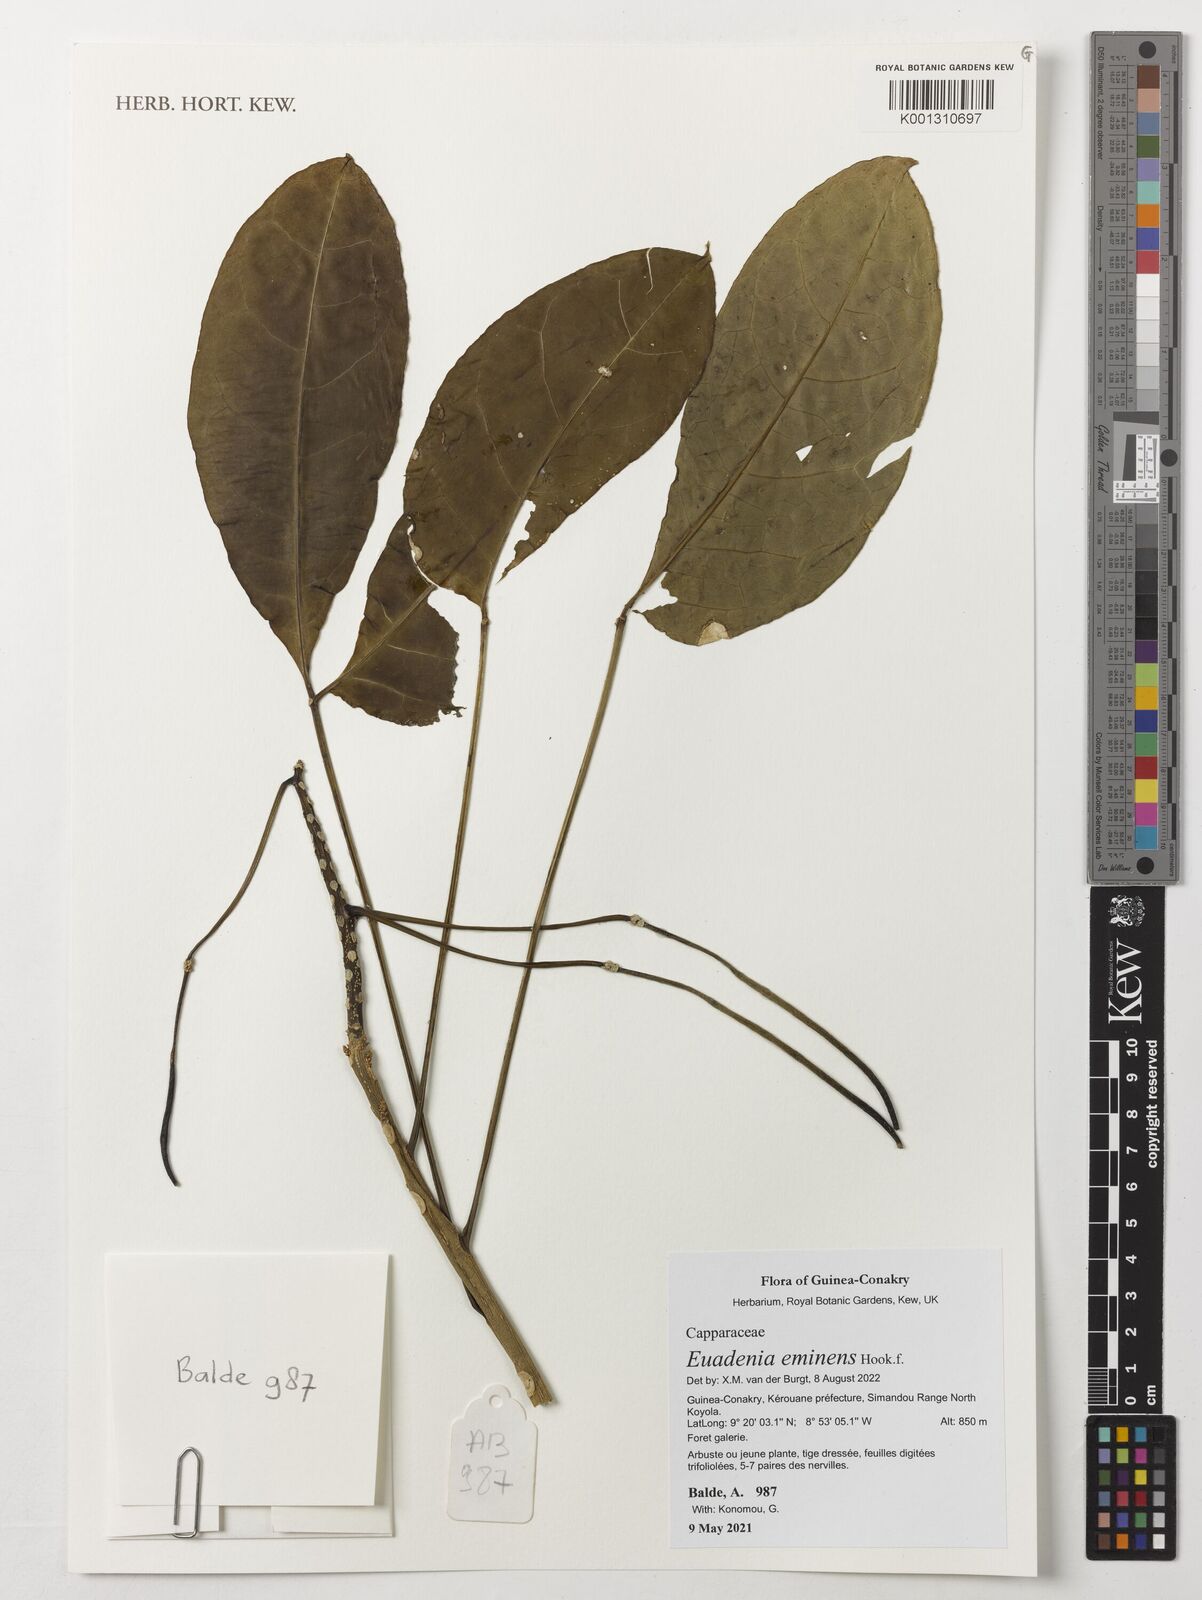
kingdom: Plantae
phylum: Tracheophyta
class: Magnoliopsida
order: Brassicales
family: Capparaceae
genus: Euadenia
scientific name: Euadenia eminens
